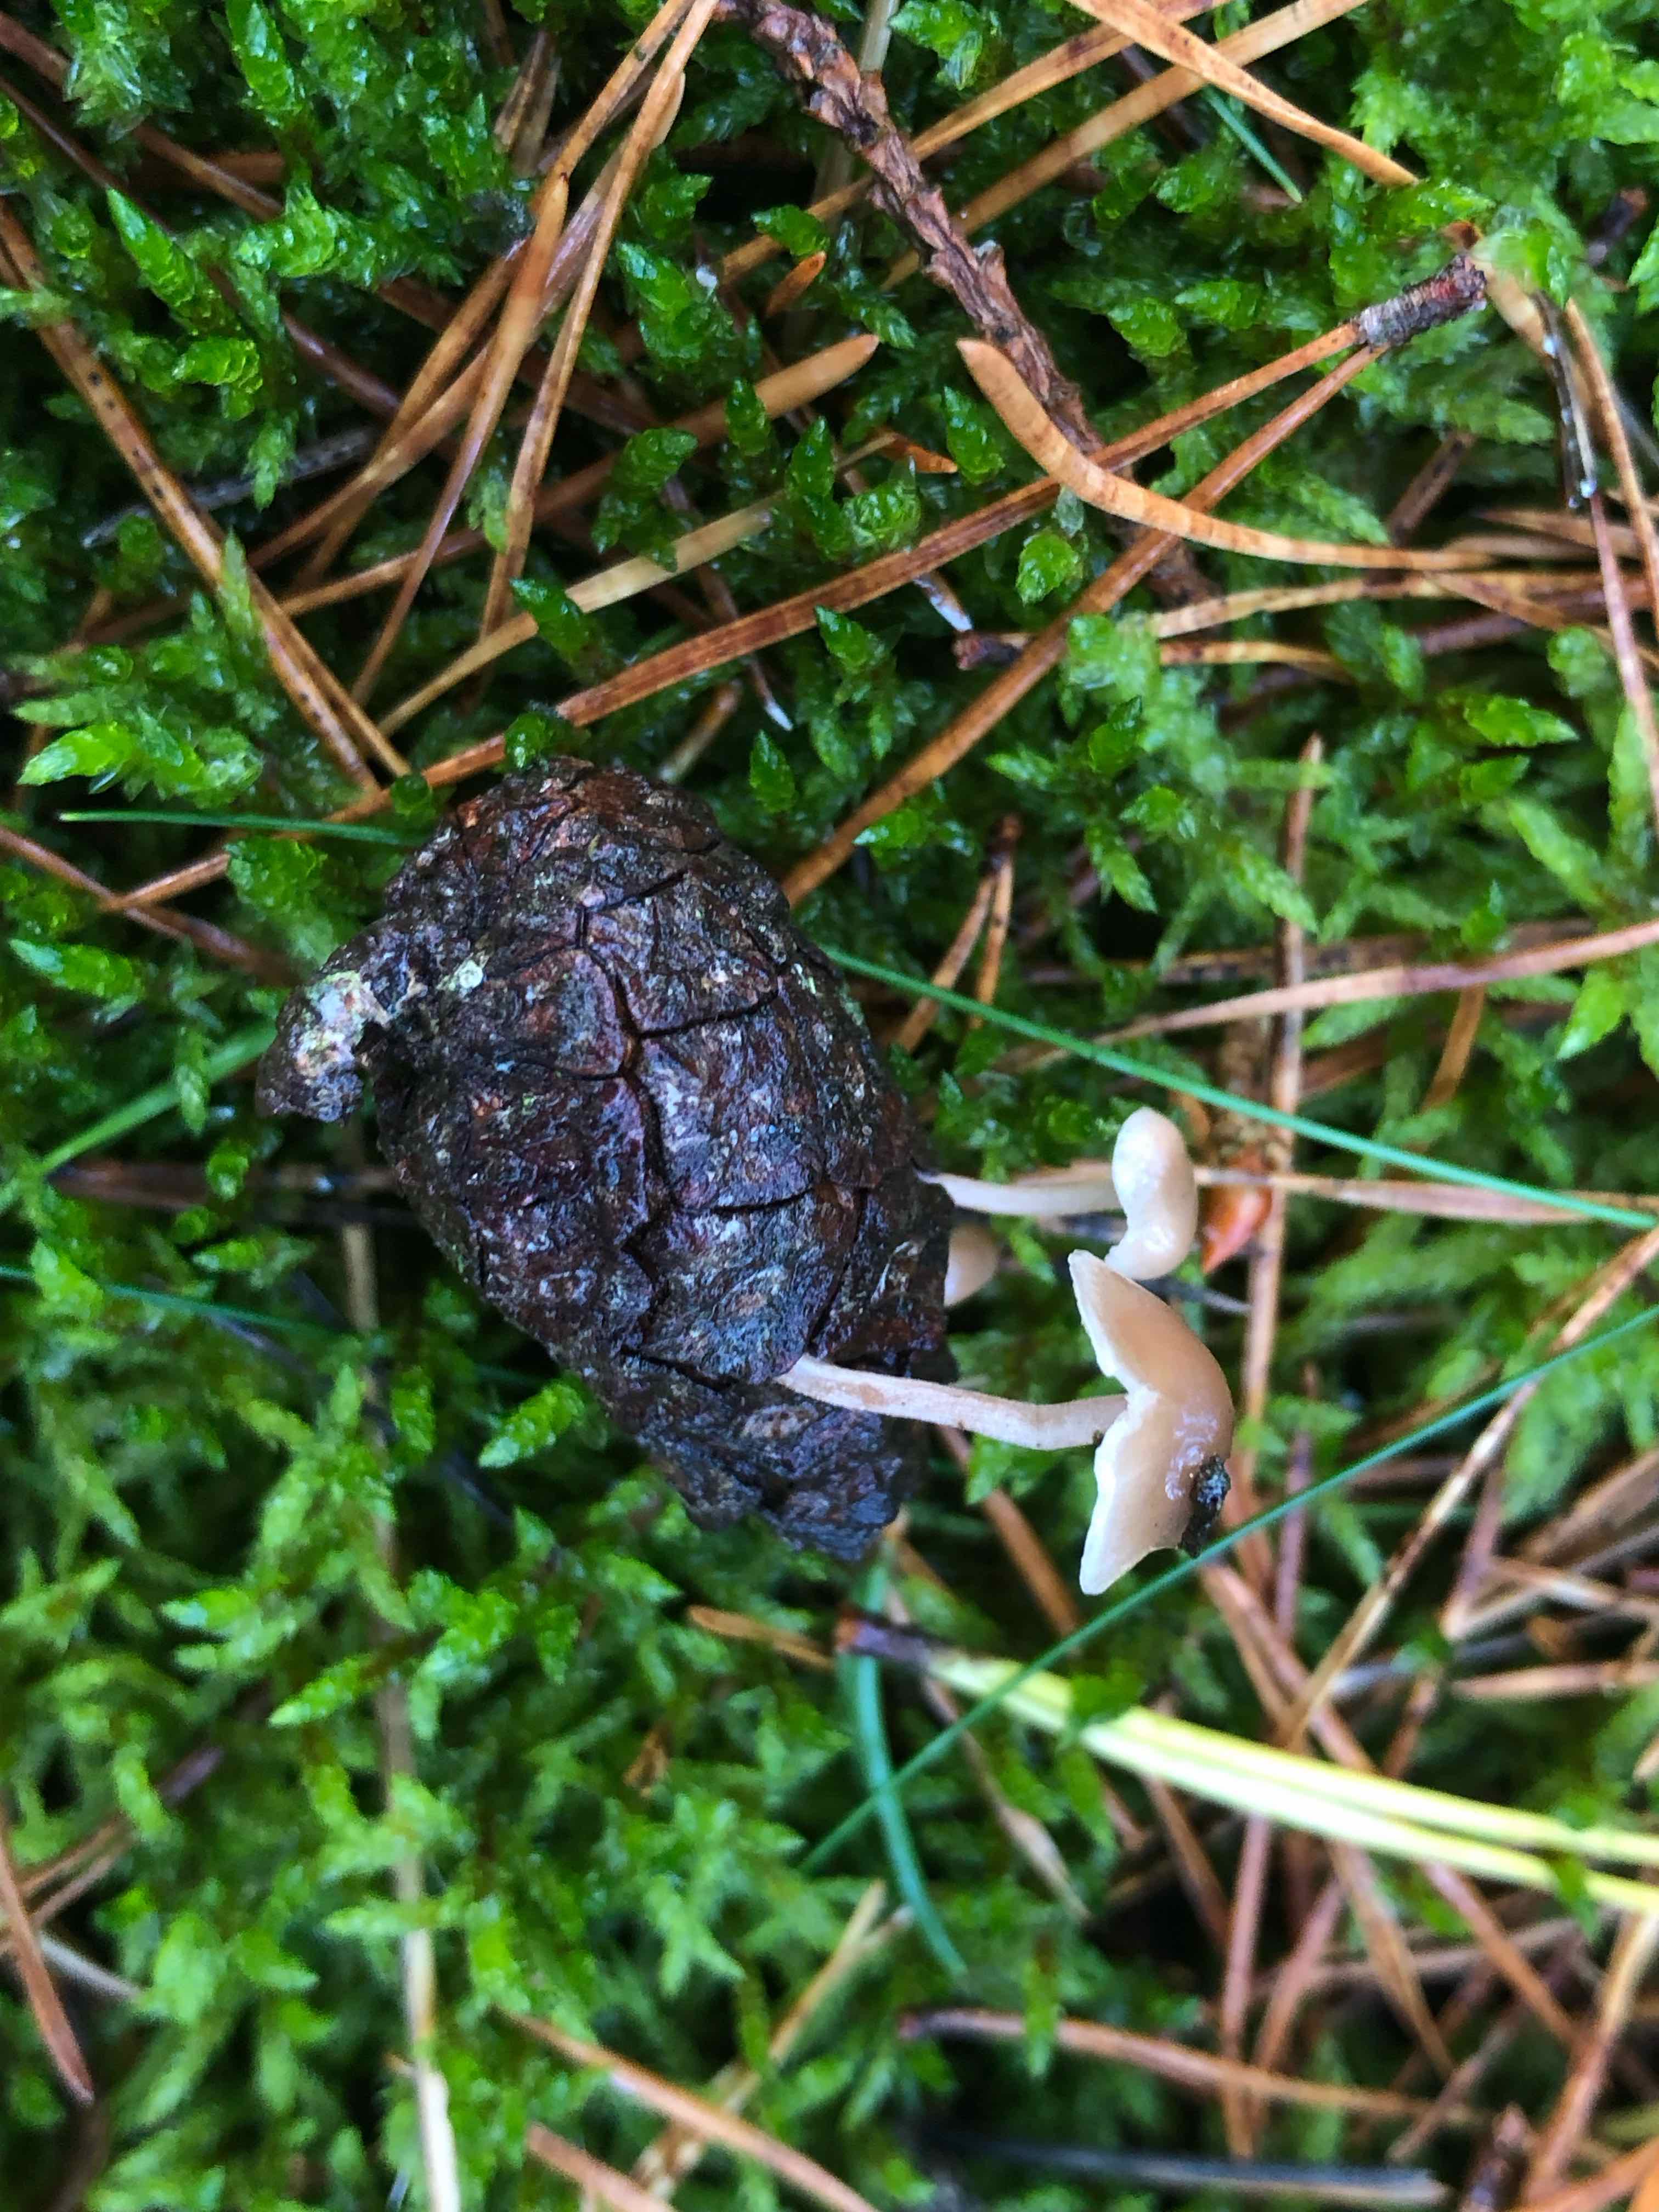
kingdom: Fungi
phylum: Basidiomycota
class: Agaricomycetes
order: Agaricales
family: Marasmiaceae
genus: Baeospora
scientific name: Baeospora myosura
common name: koglebruskhat
